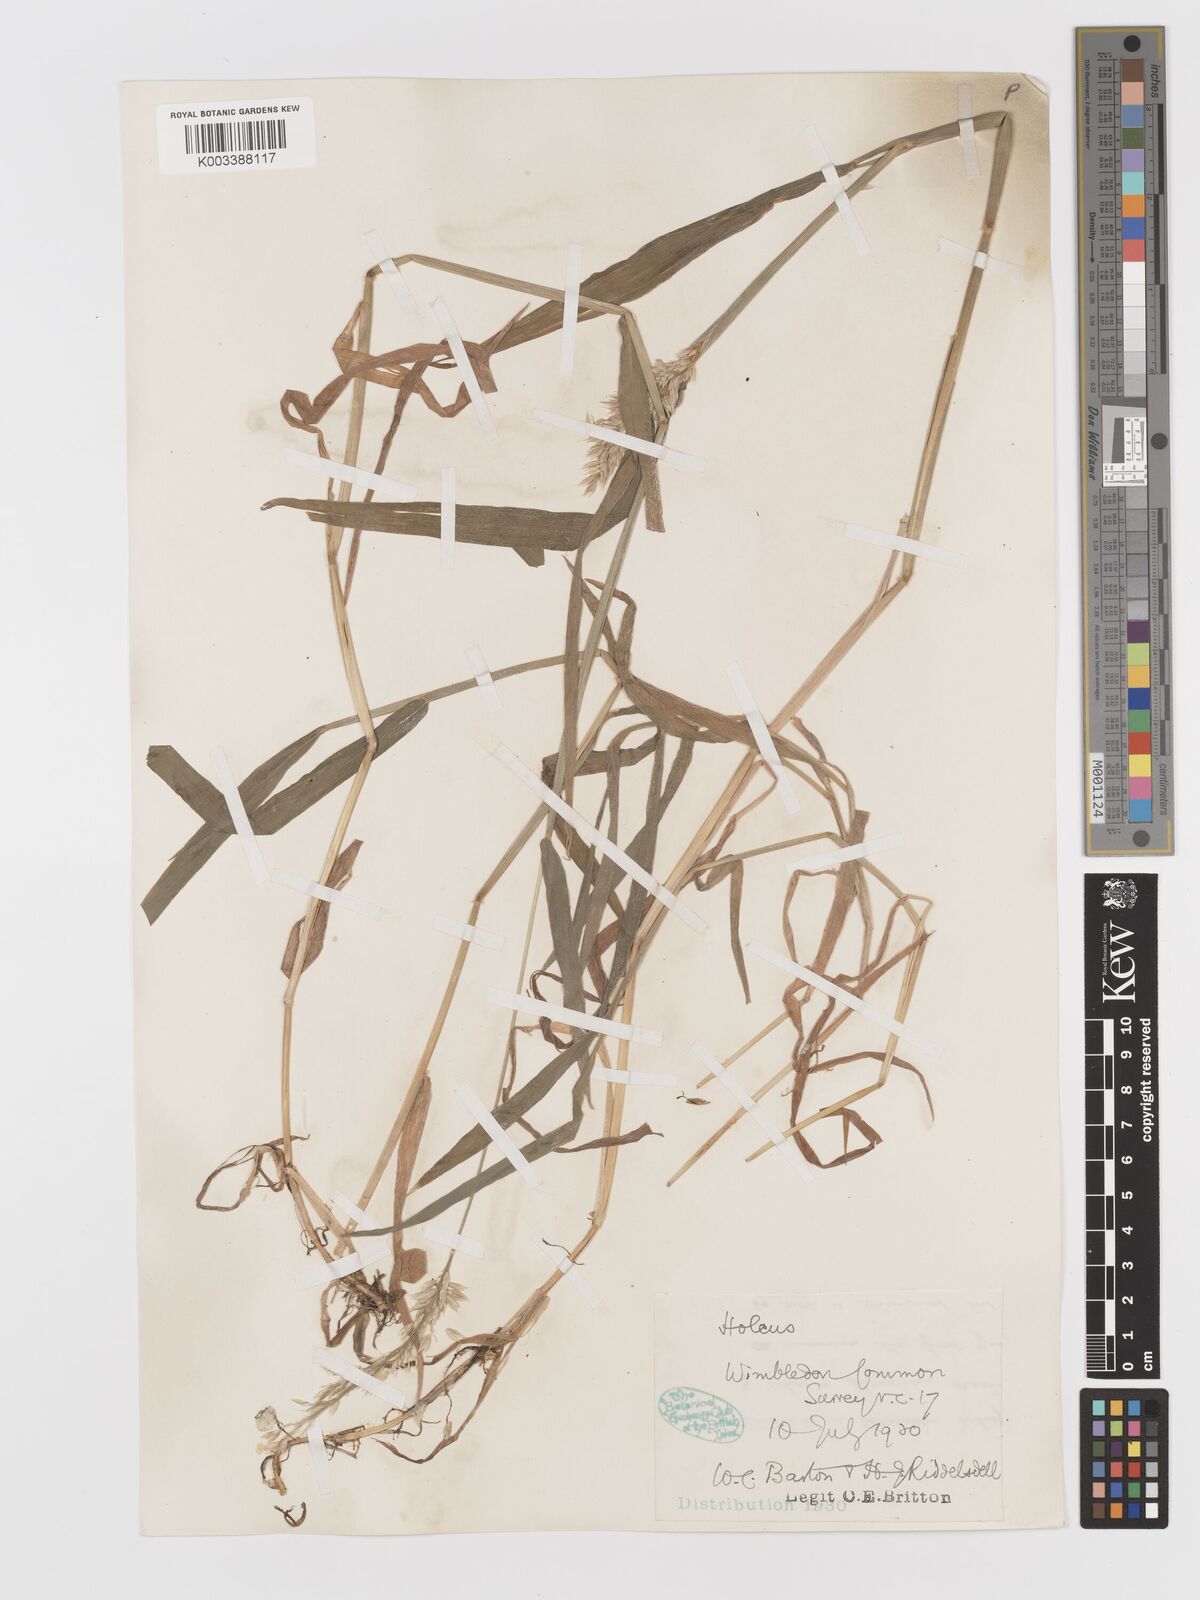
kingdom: Plantae
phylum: Tracheophyta
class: Liliopsida
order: Poales
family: Poaceae
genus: Holcus
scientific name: Holcus mollis
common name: Creeping velvetgrass
